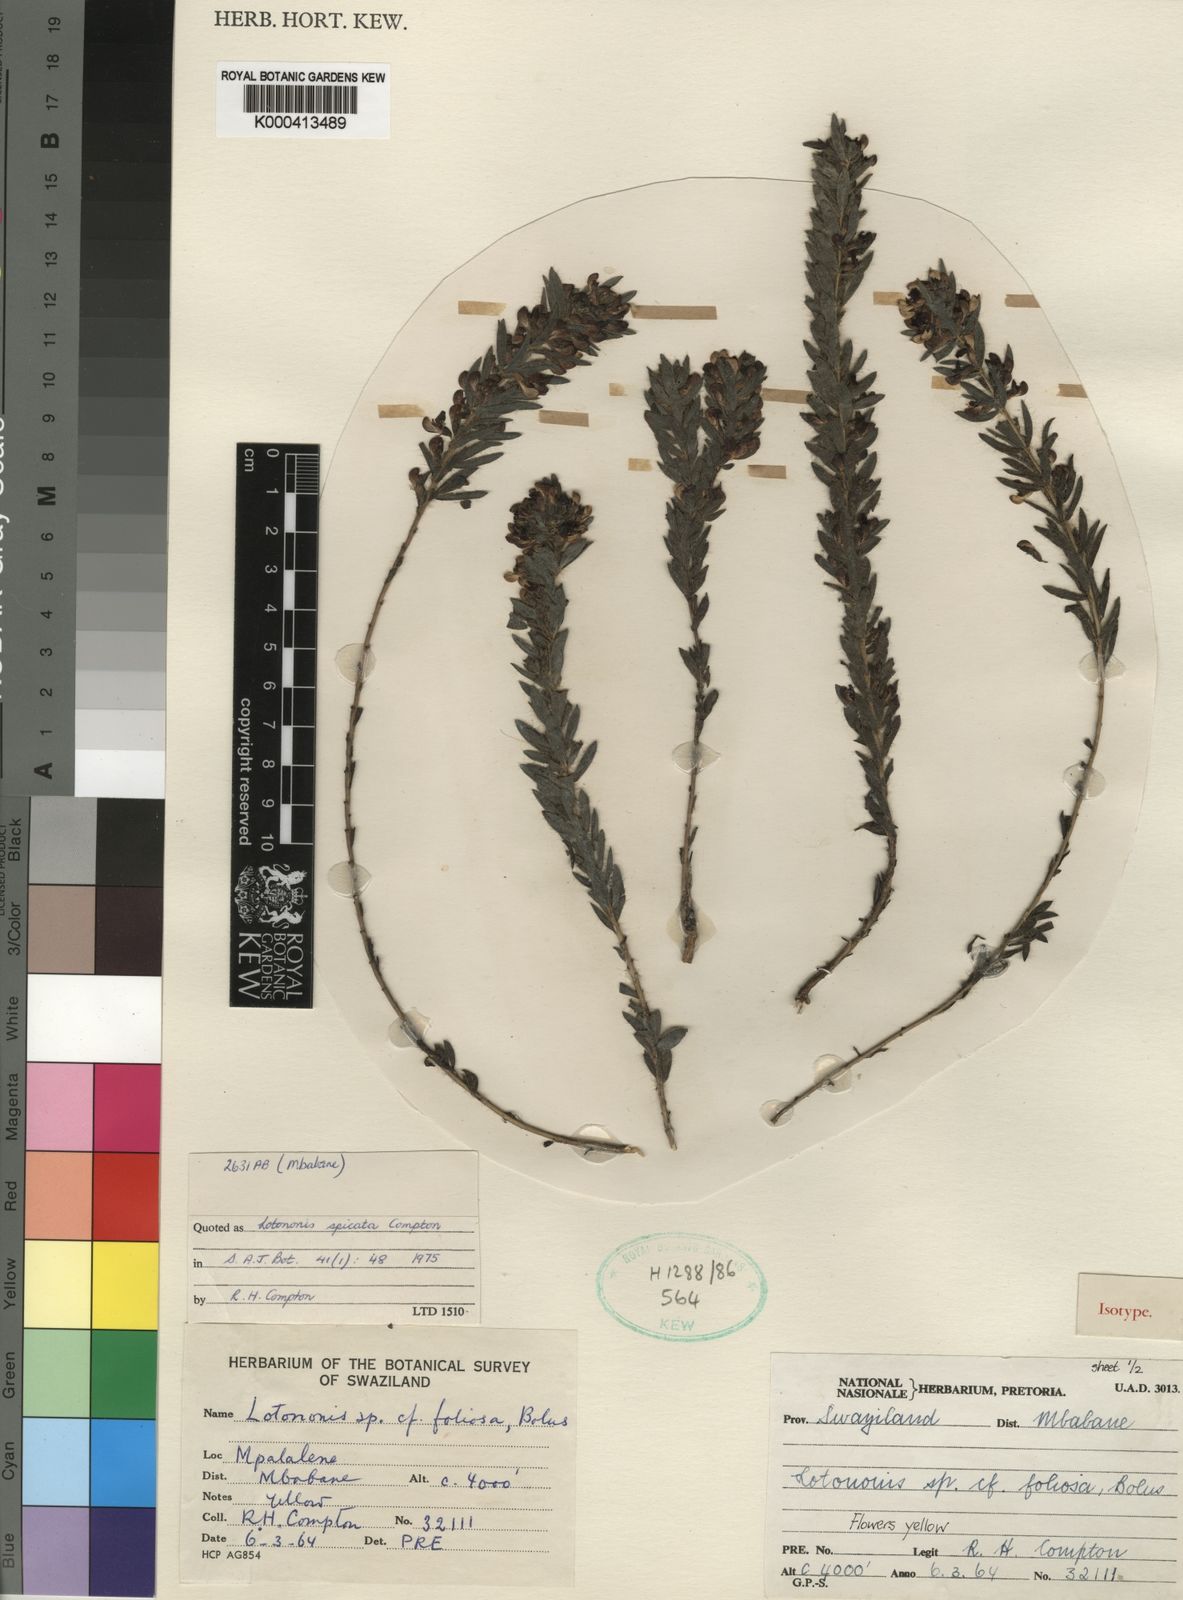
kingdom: Plantae
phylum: Tracheophyta
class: Magnoliopsida
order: Fabales
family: Fabaceae
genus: Leobordea
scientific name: Leobordea spicata
